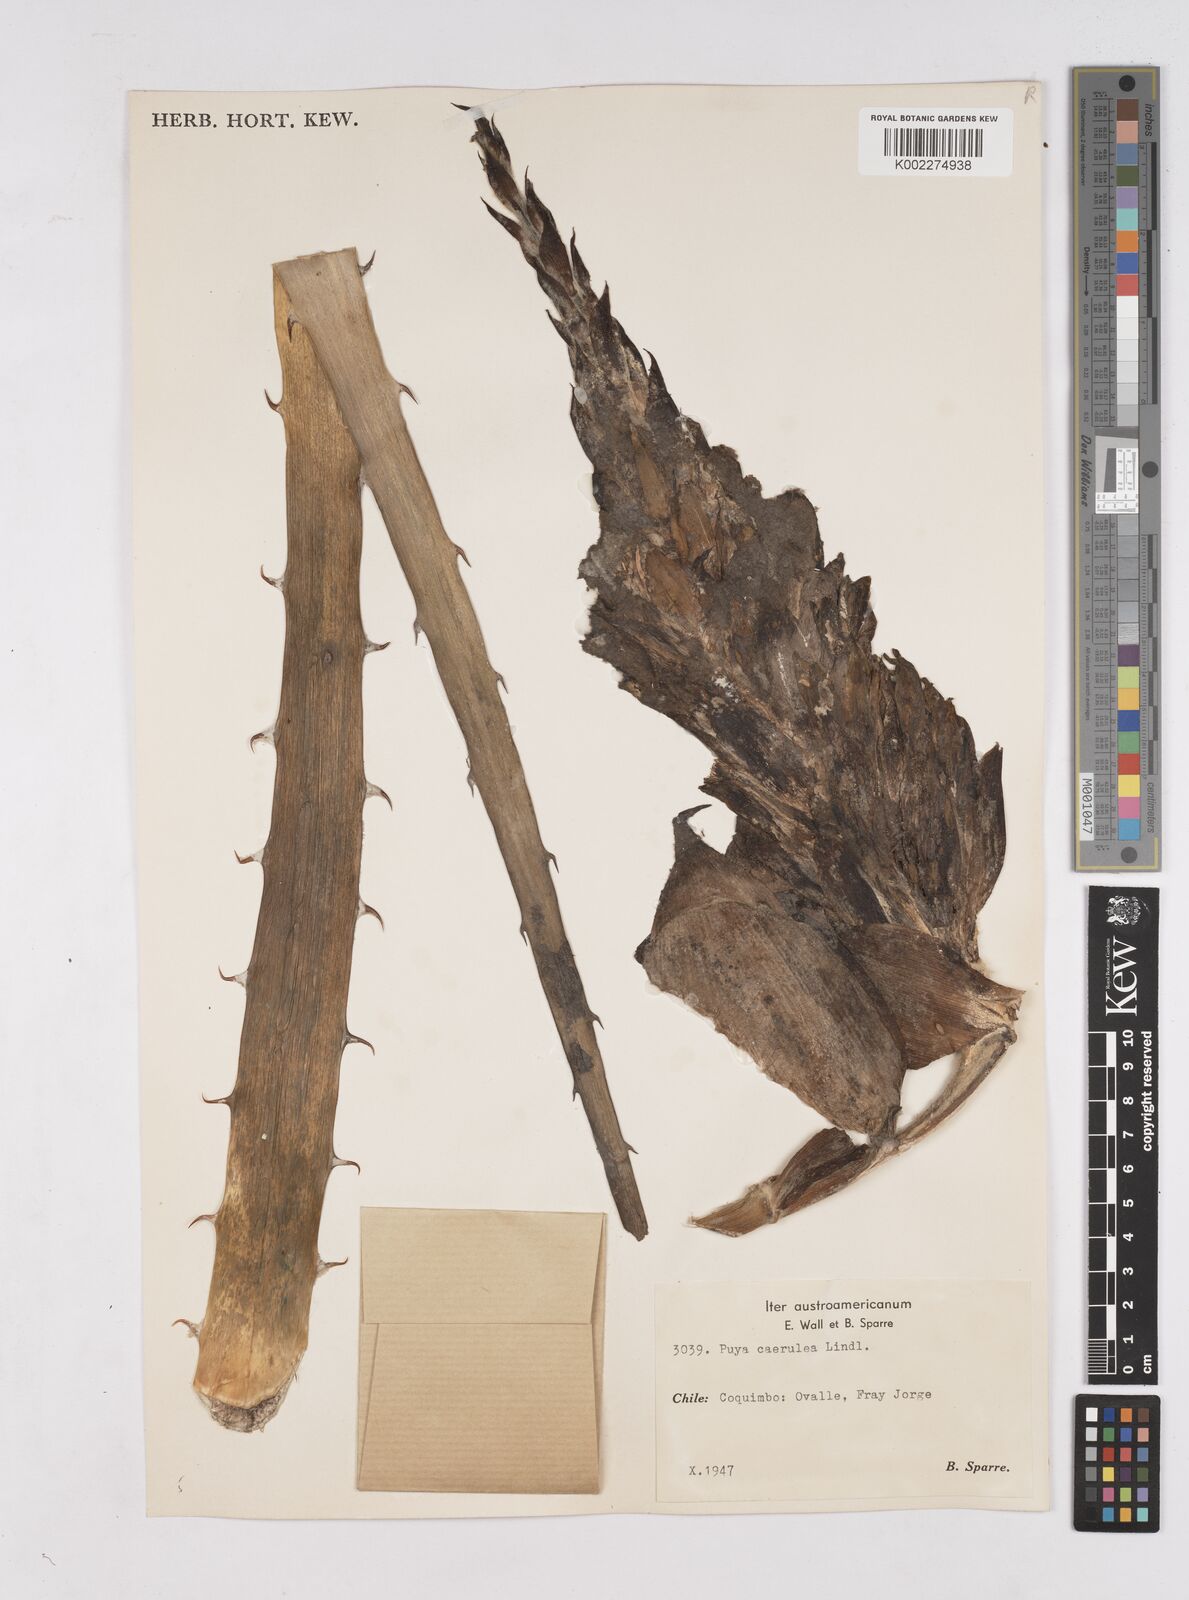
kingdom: Plantae
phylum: Tracheophyta
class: Liliopsida
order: Poales
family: Bromeliaceae
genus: Puya
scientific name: Puya coerulea
